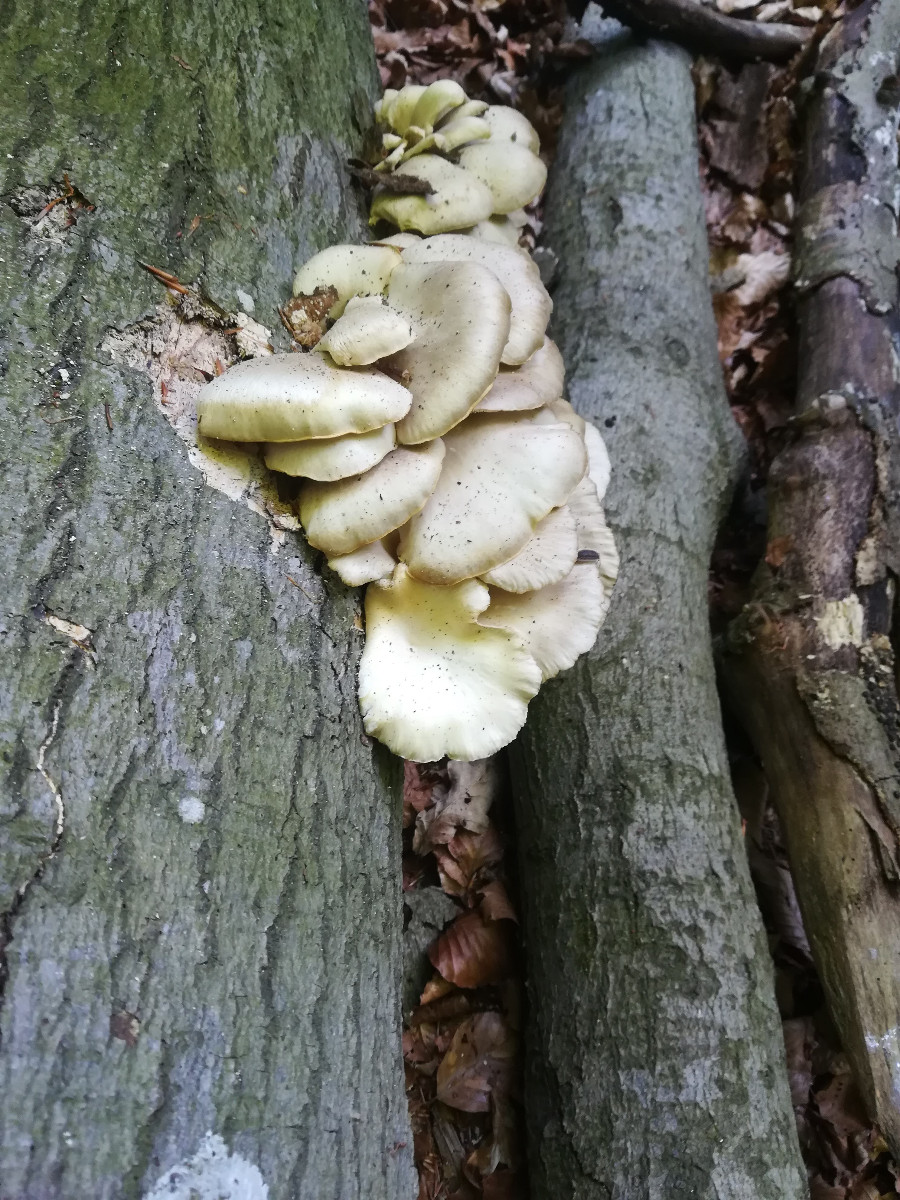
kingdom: Fungi
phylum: Basidiomycota
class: Agaricomycetes
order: Agaricales
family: Pleurotaceae
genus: Pleurotus
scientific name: Pleurotus pulmonarius
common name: sommer-østershat
